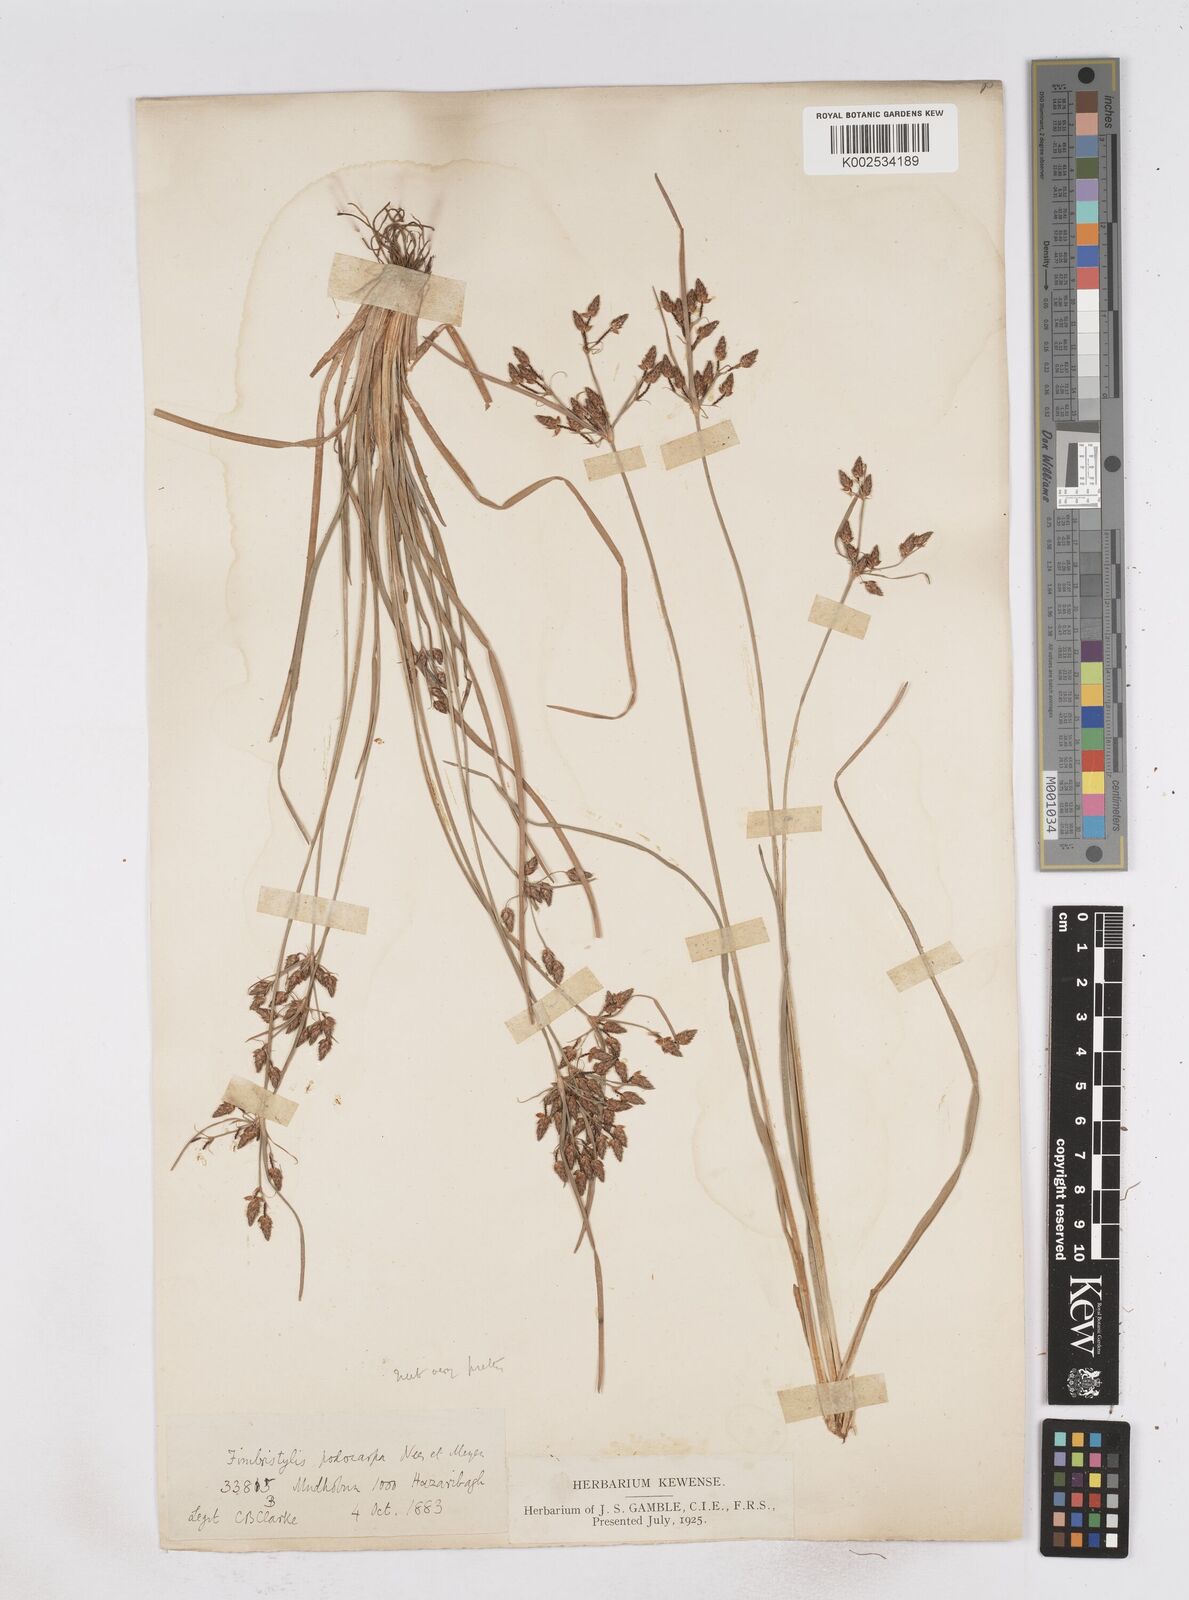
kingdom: Plantae
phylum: Tracheophyta
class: Liliopsida
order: Poales
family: Cyperaceae
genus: Fimbristylis
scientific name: Fimbristylis dichotoma
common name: Forked fimbry
